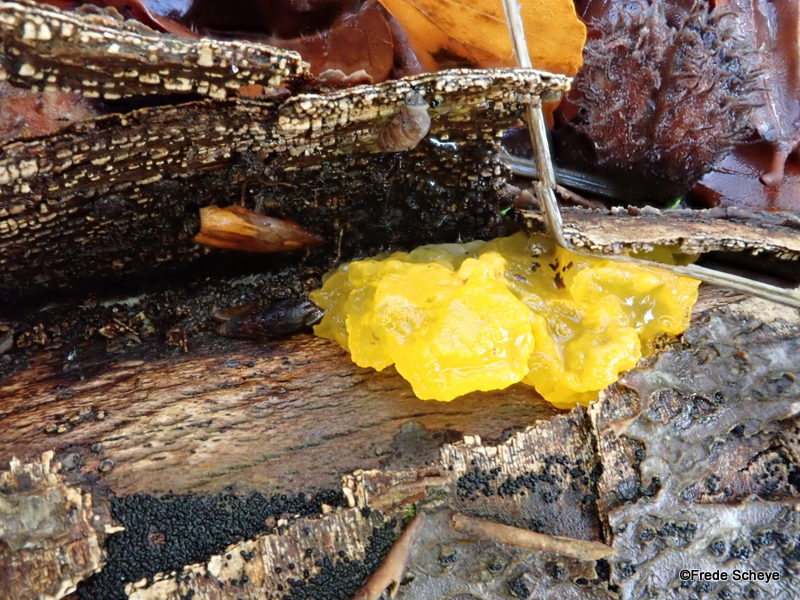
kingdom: Fungi
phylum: Basidiomycota
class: Tremellomycetes
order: Tremellales
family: Tremellaceae
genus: Tremella
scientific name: Tremella mesenterica
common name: gul bævresvamp
